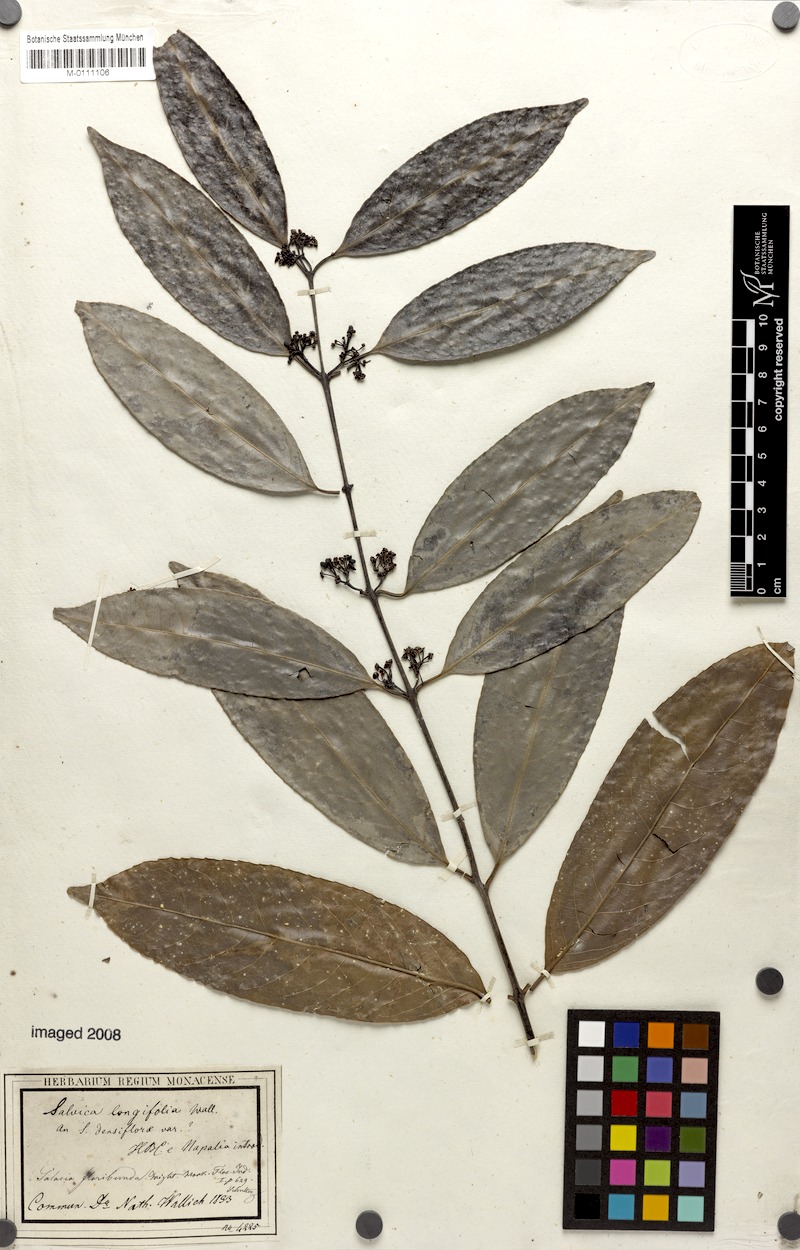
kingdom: Plantae
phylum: Tracheophyta
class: Magnoliopsida
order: Celastrales
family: Celastraceae
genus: Salacia
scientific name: Salacia floribunda
